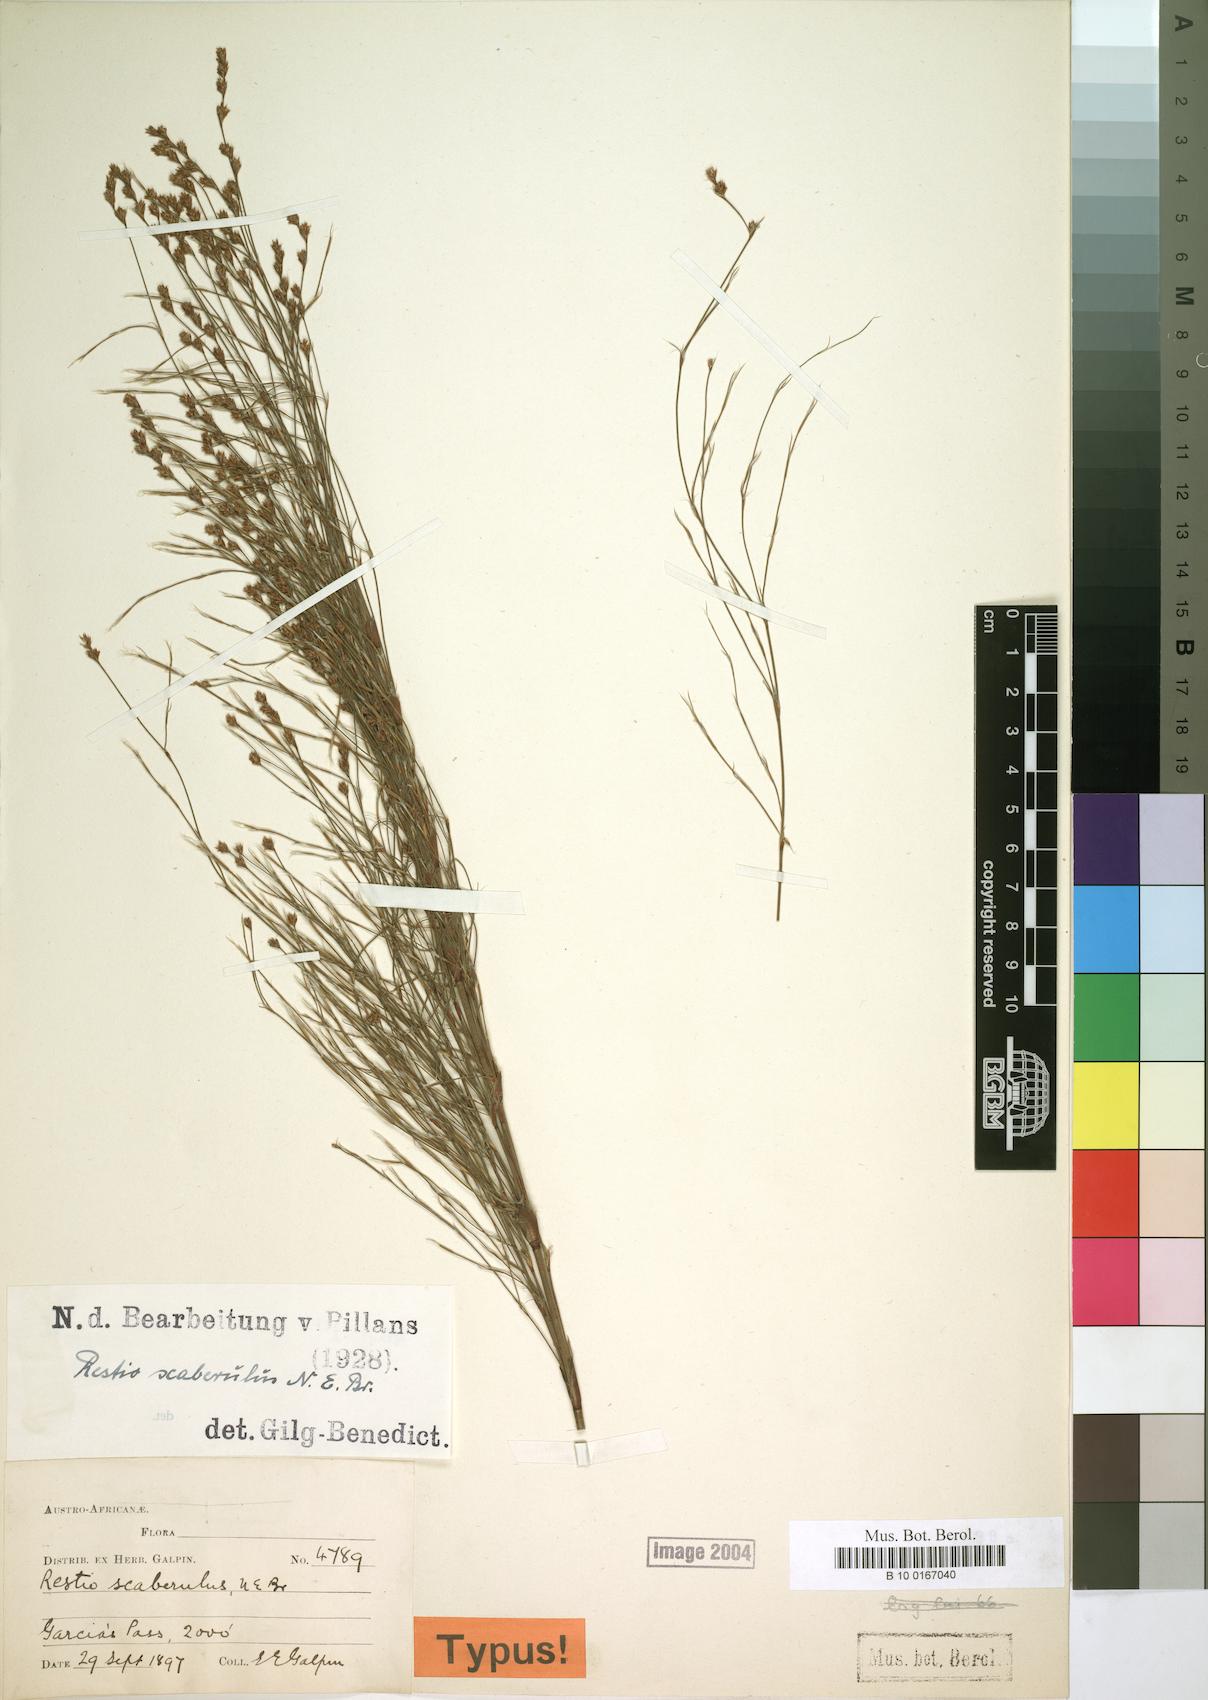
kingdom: Plantae
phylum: Tracheophyta
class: Liliopsida
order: Poales
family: Restionaceae
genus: Restio
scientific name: Restio scaberulus
